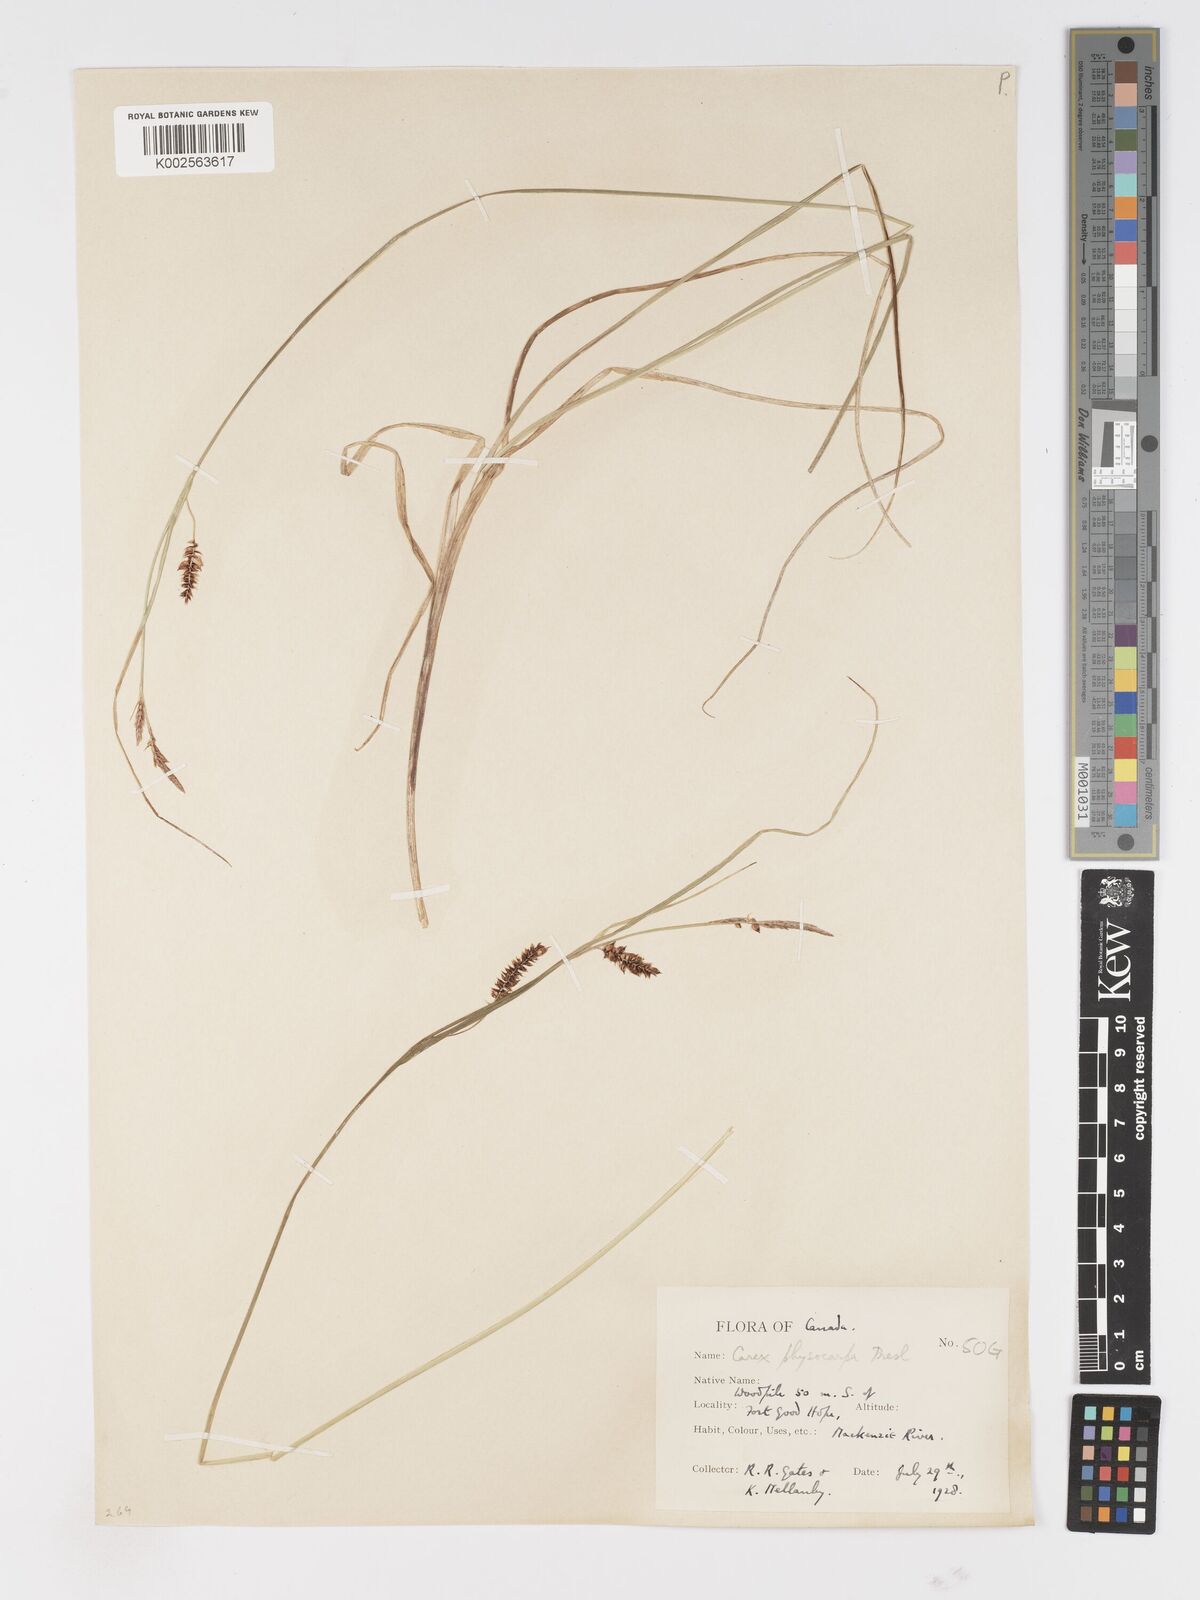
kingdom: Plantae
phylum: Tracheophyta
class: Liliopsida
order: Poales
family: Cyperaceae
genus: Carex
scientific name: Carex
